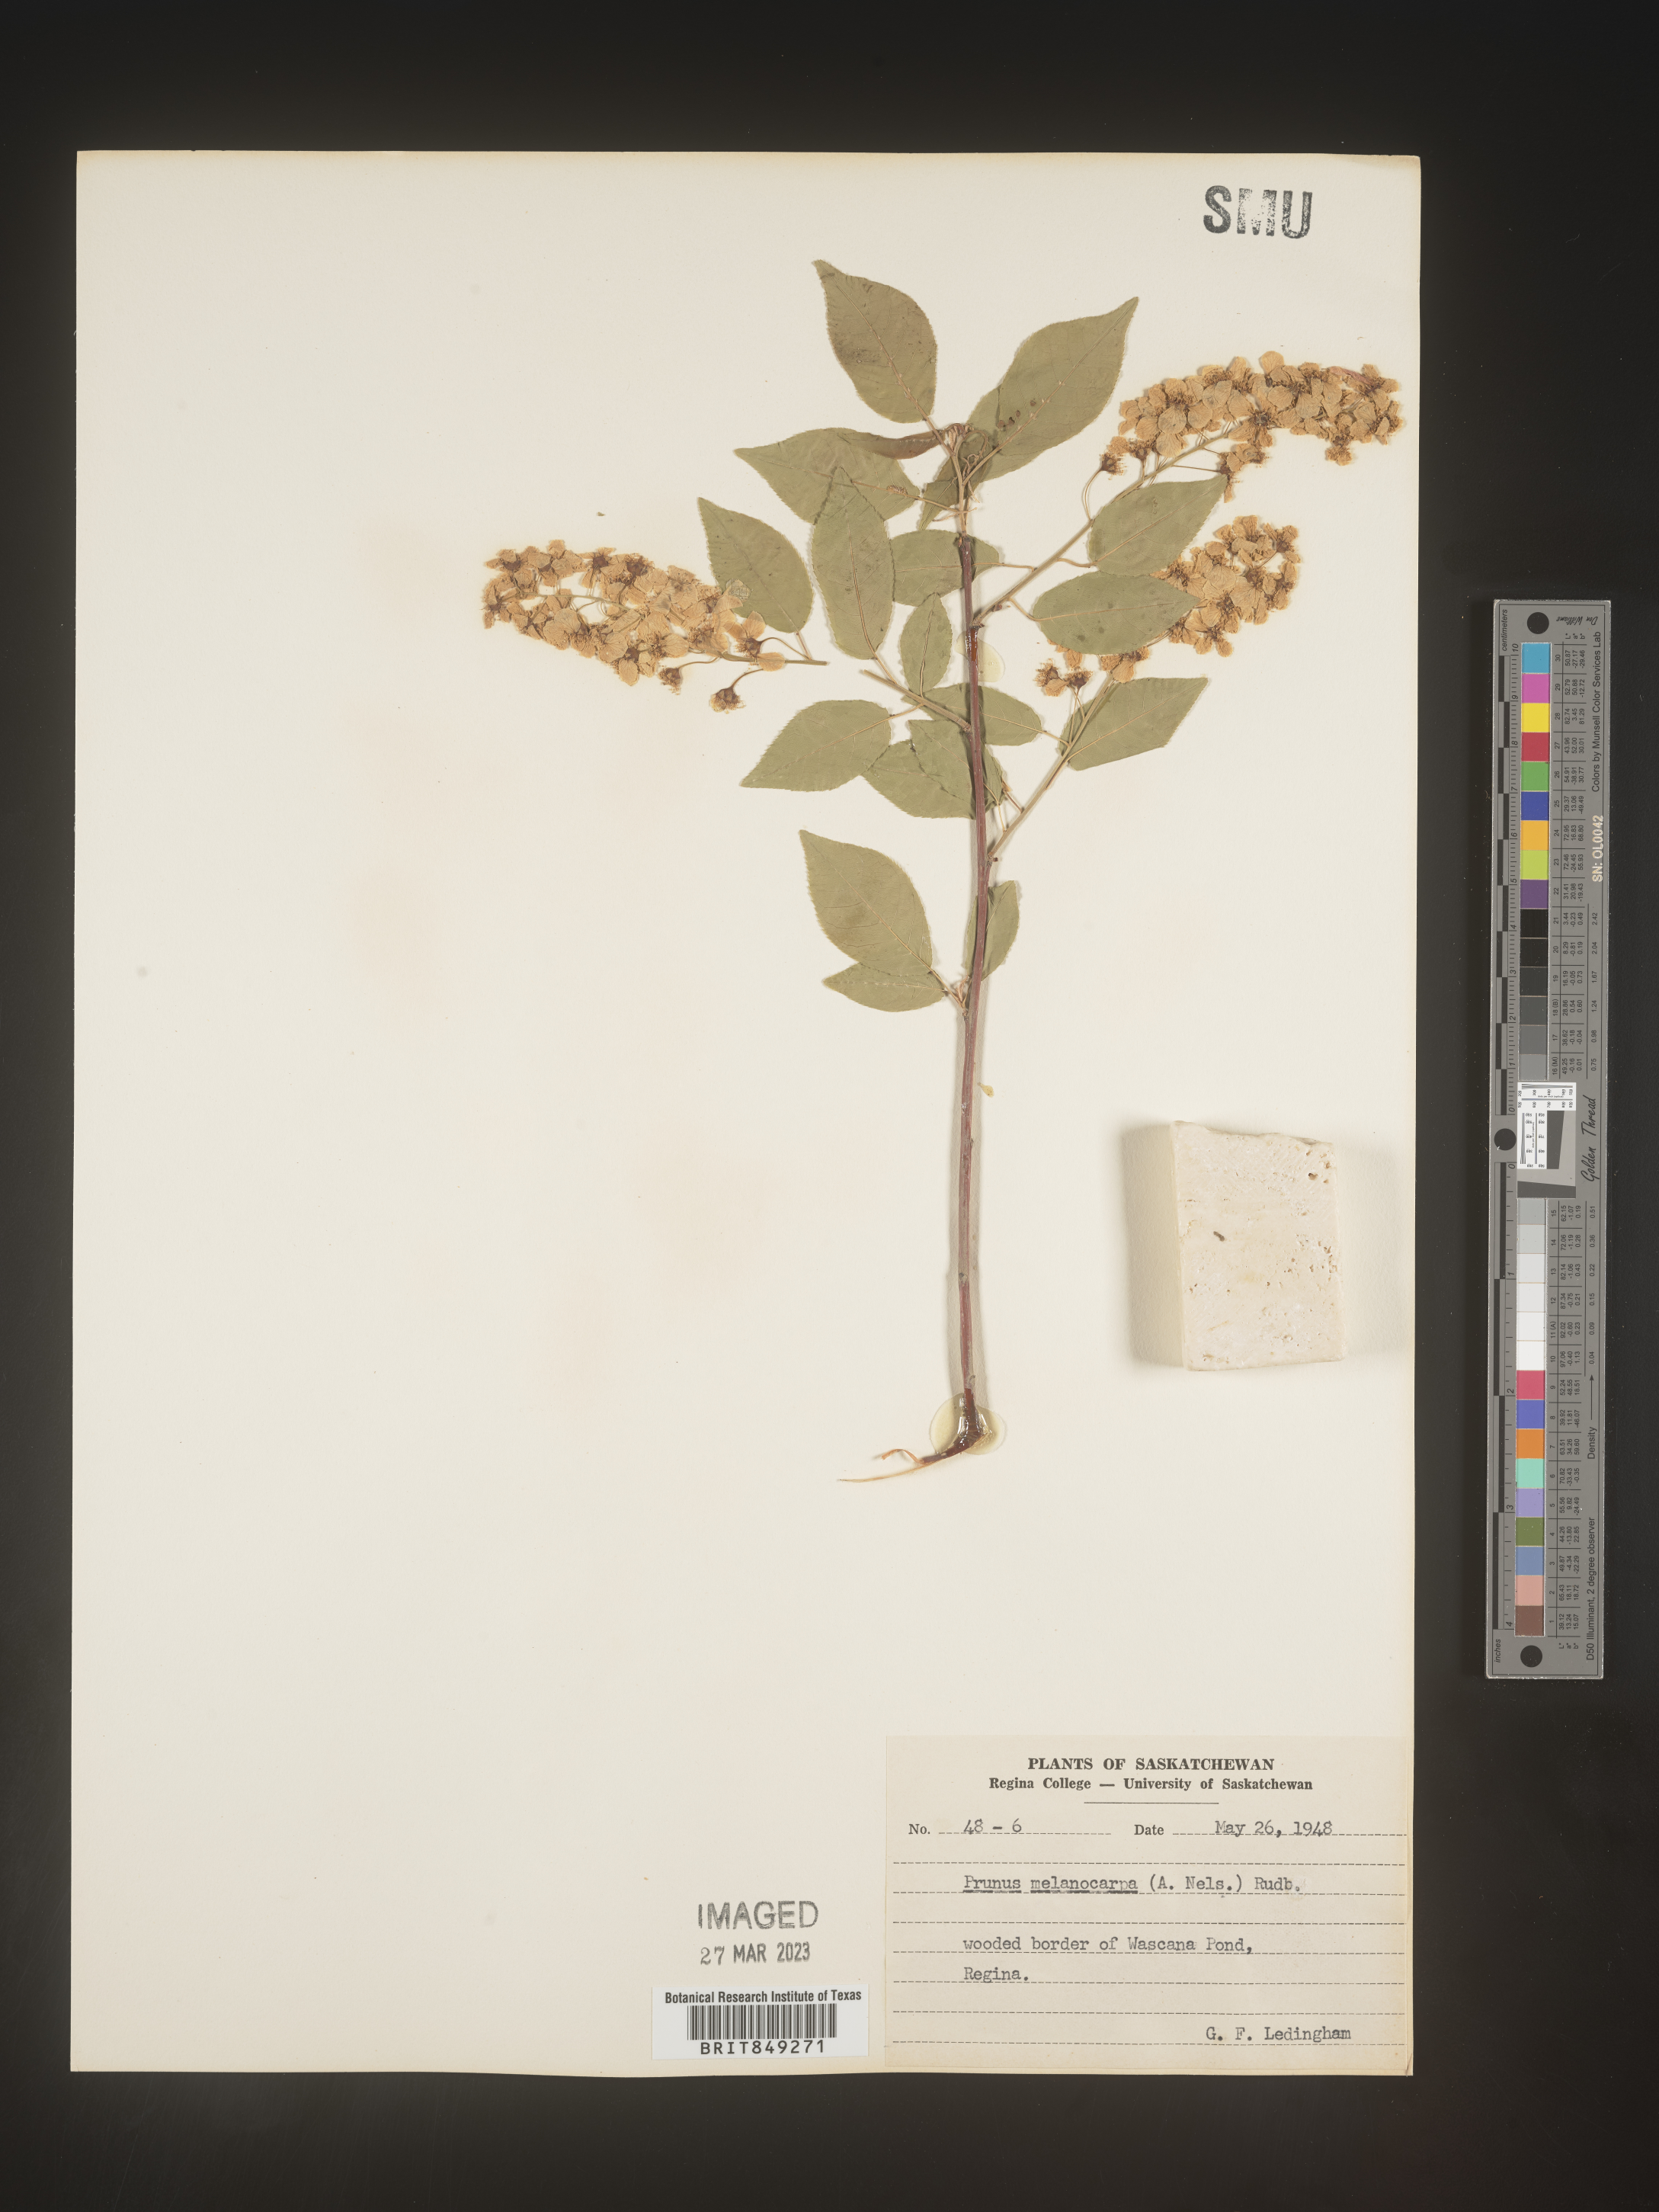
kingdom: Plantae
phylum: Tracheophyta
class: Magnoliopsida
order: Rosales
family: Rosaceae
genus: Prunus
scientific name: Prunus
